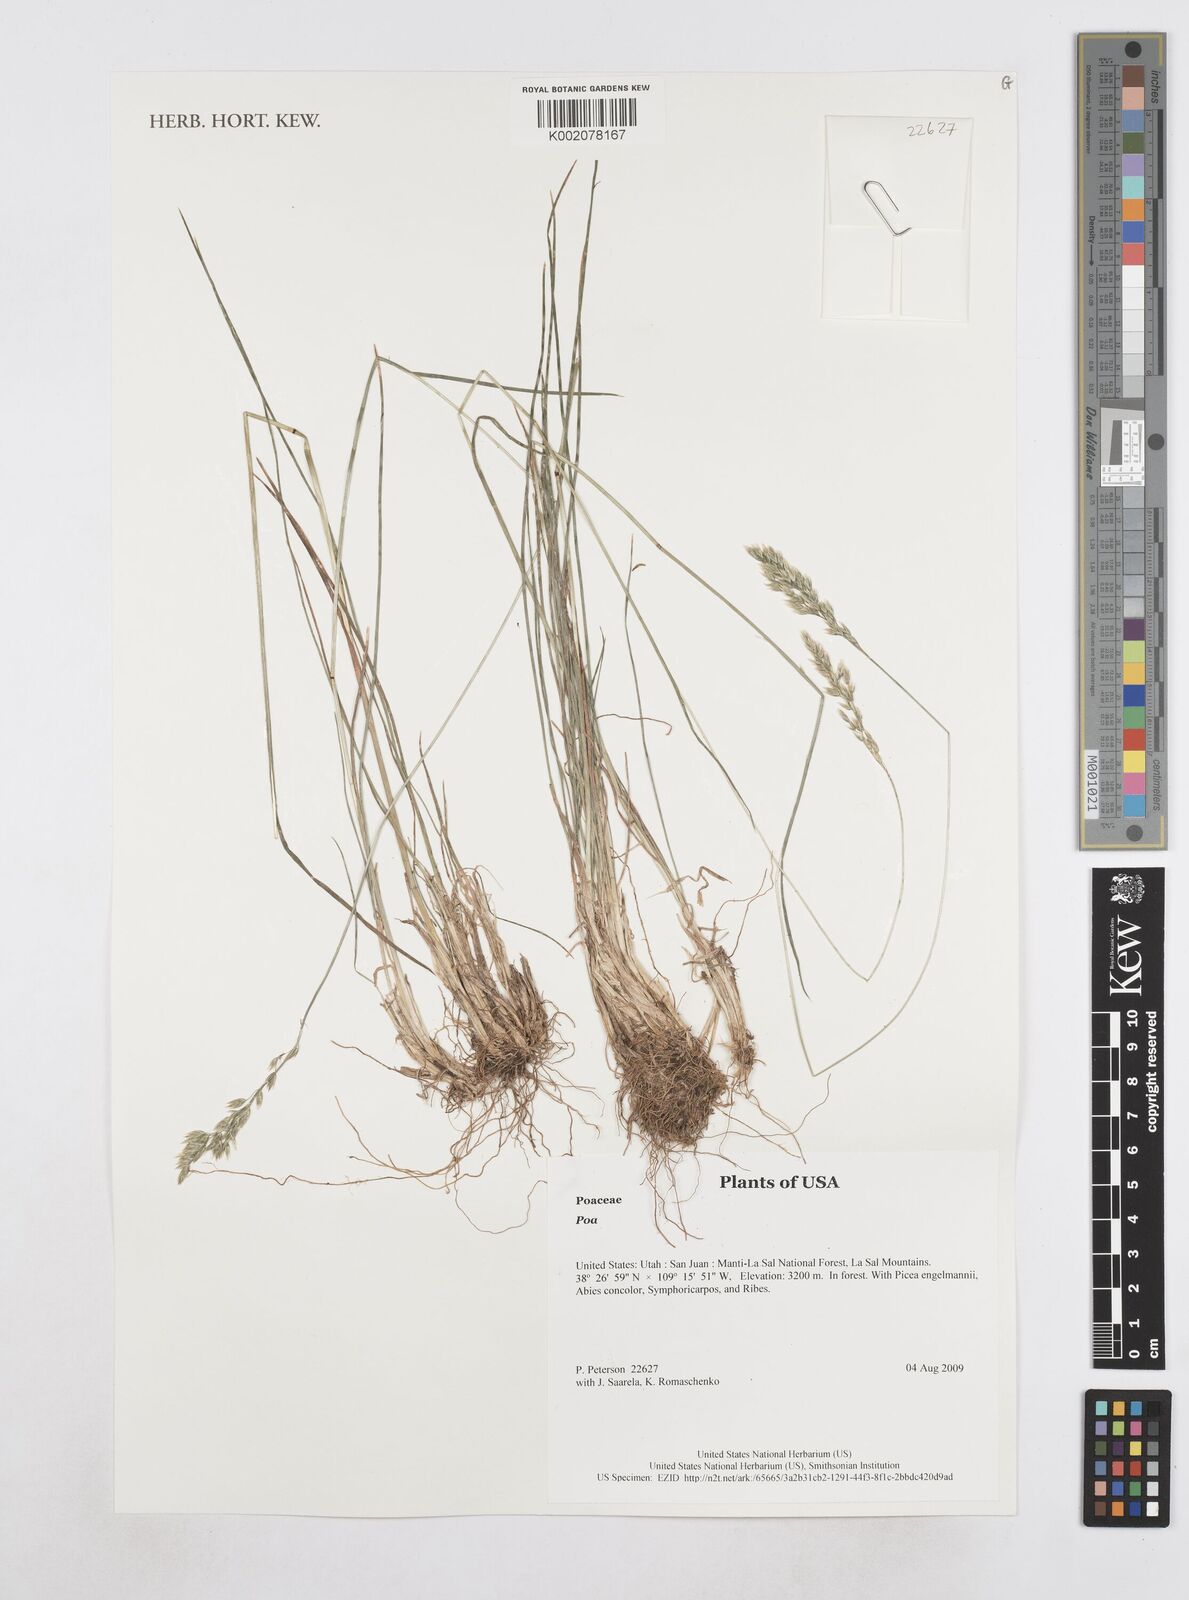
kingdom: Plantae
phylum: Tracheophyta
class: Liliopsida
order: Poales
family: Poaceae
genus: Poa
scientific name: Poa
